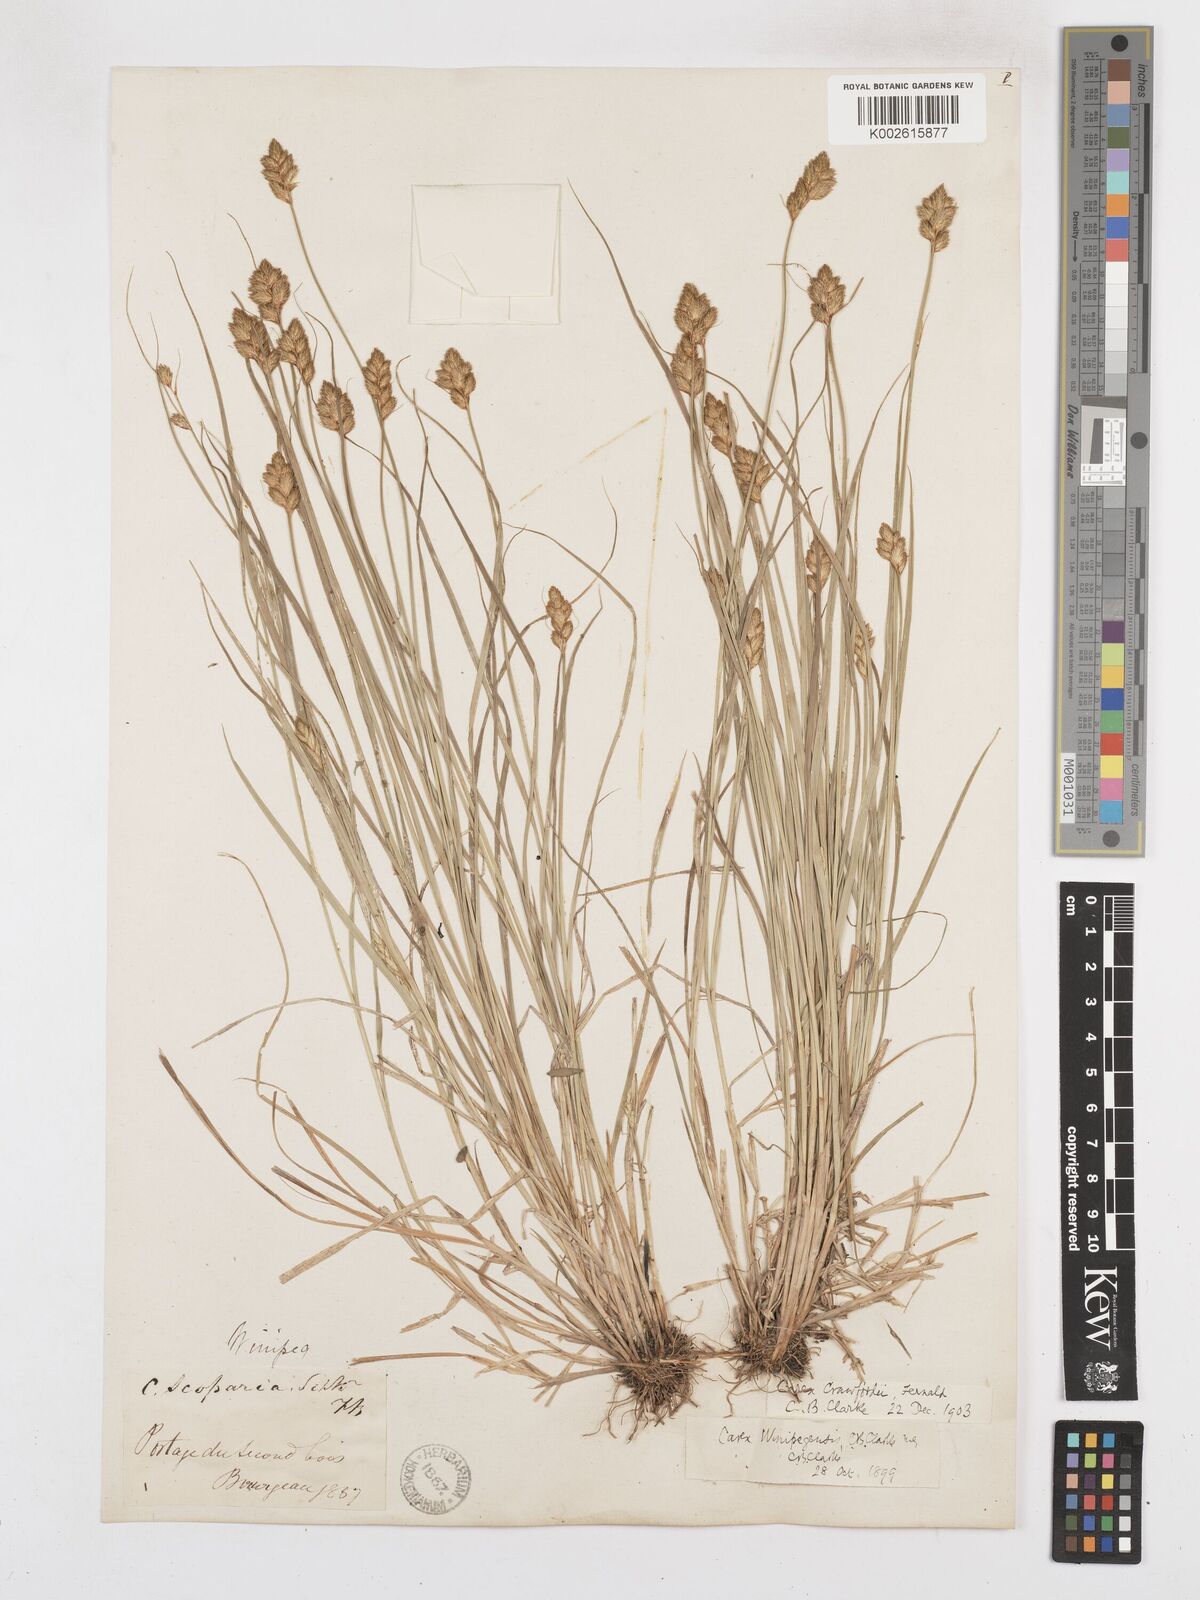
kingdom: Plantae
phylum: Tracheophyta
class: Liliopsida
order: Poales
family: Cyperaceae
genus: Carex
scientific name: Carex crawfordii
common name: Crawford's sedge
